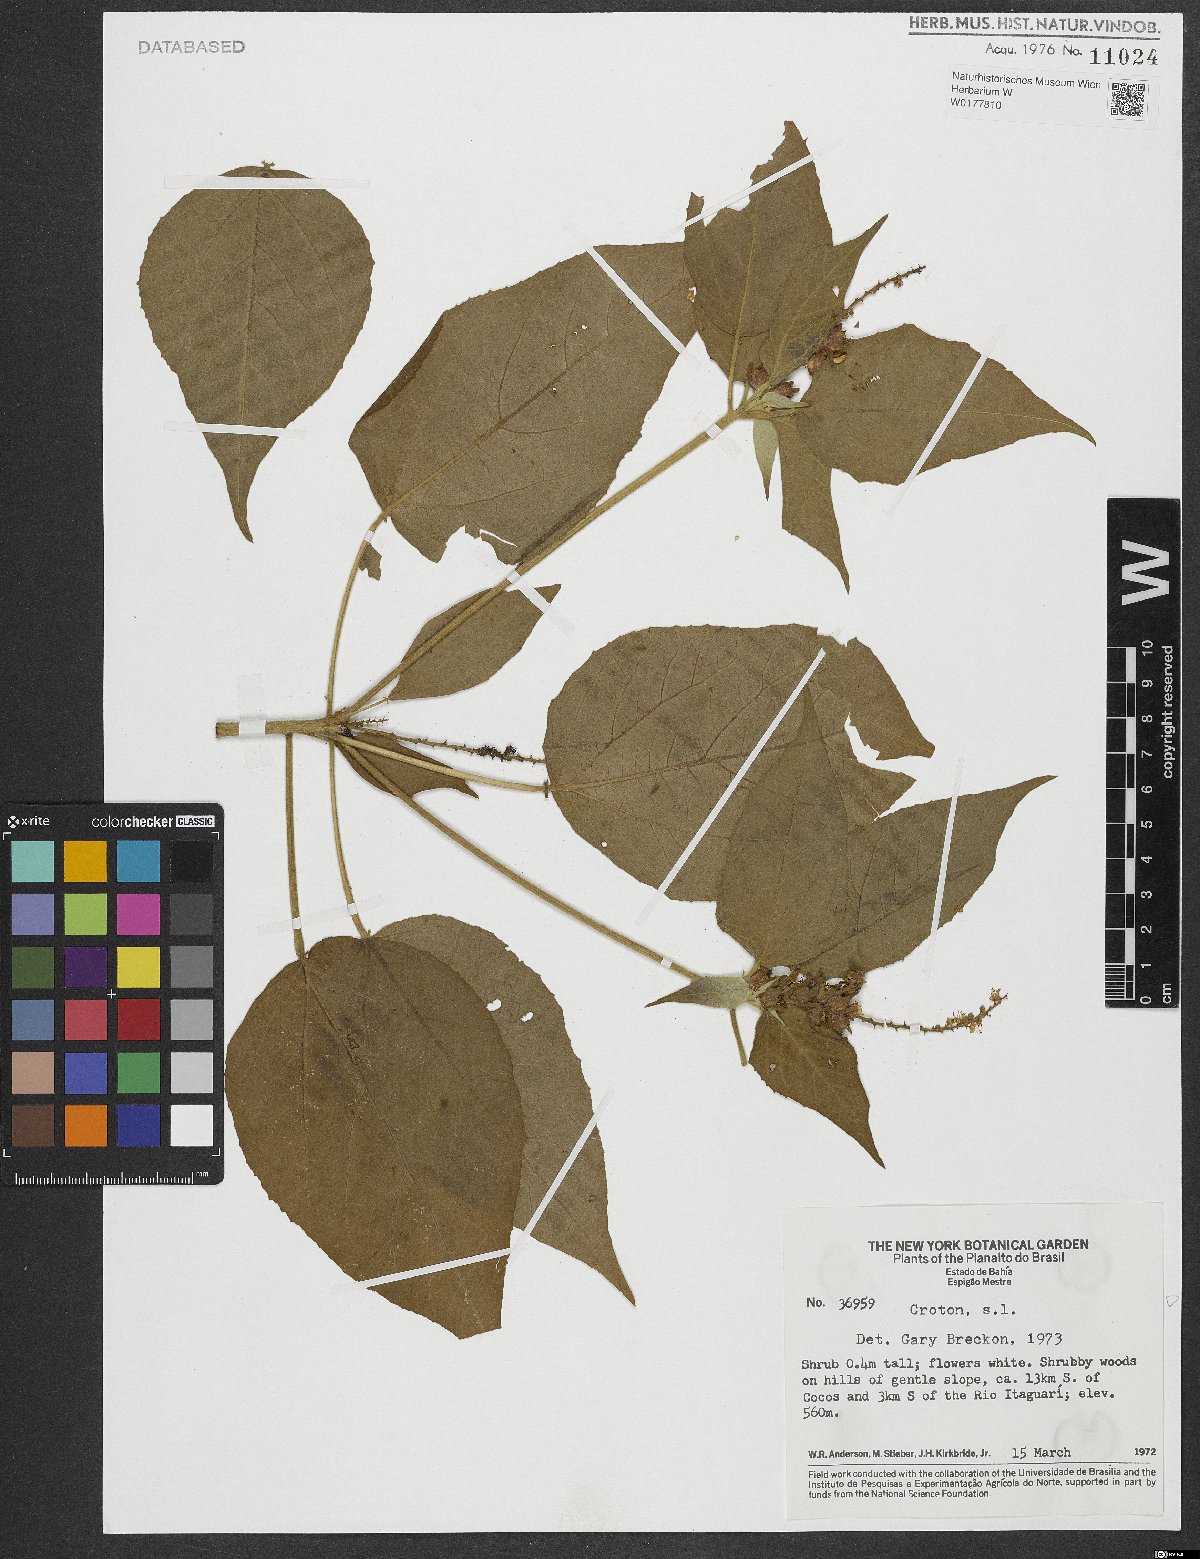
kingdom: Plantae
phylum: Tracheophyta
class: Magnoliopsida
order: Malpighiales
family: Euphorbiaceae
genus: Croton
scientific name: Croton
